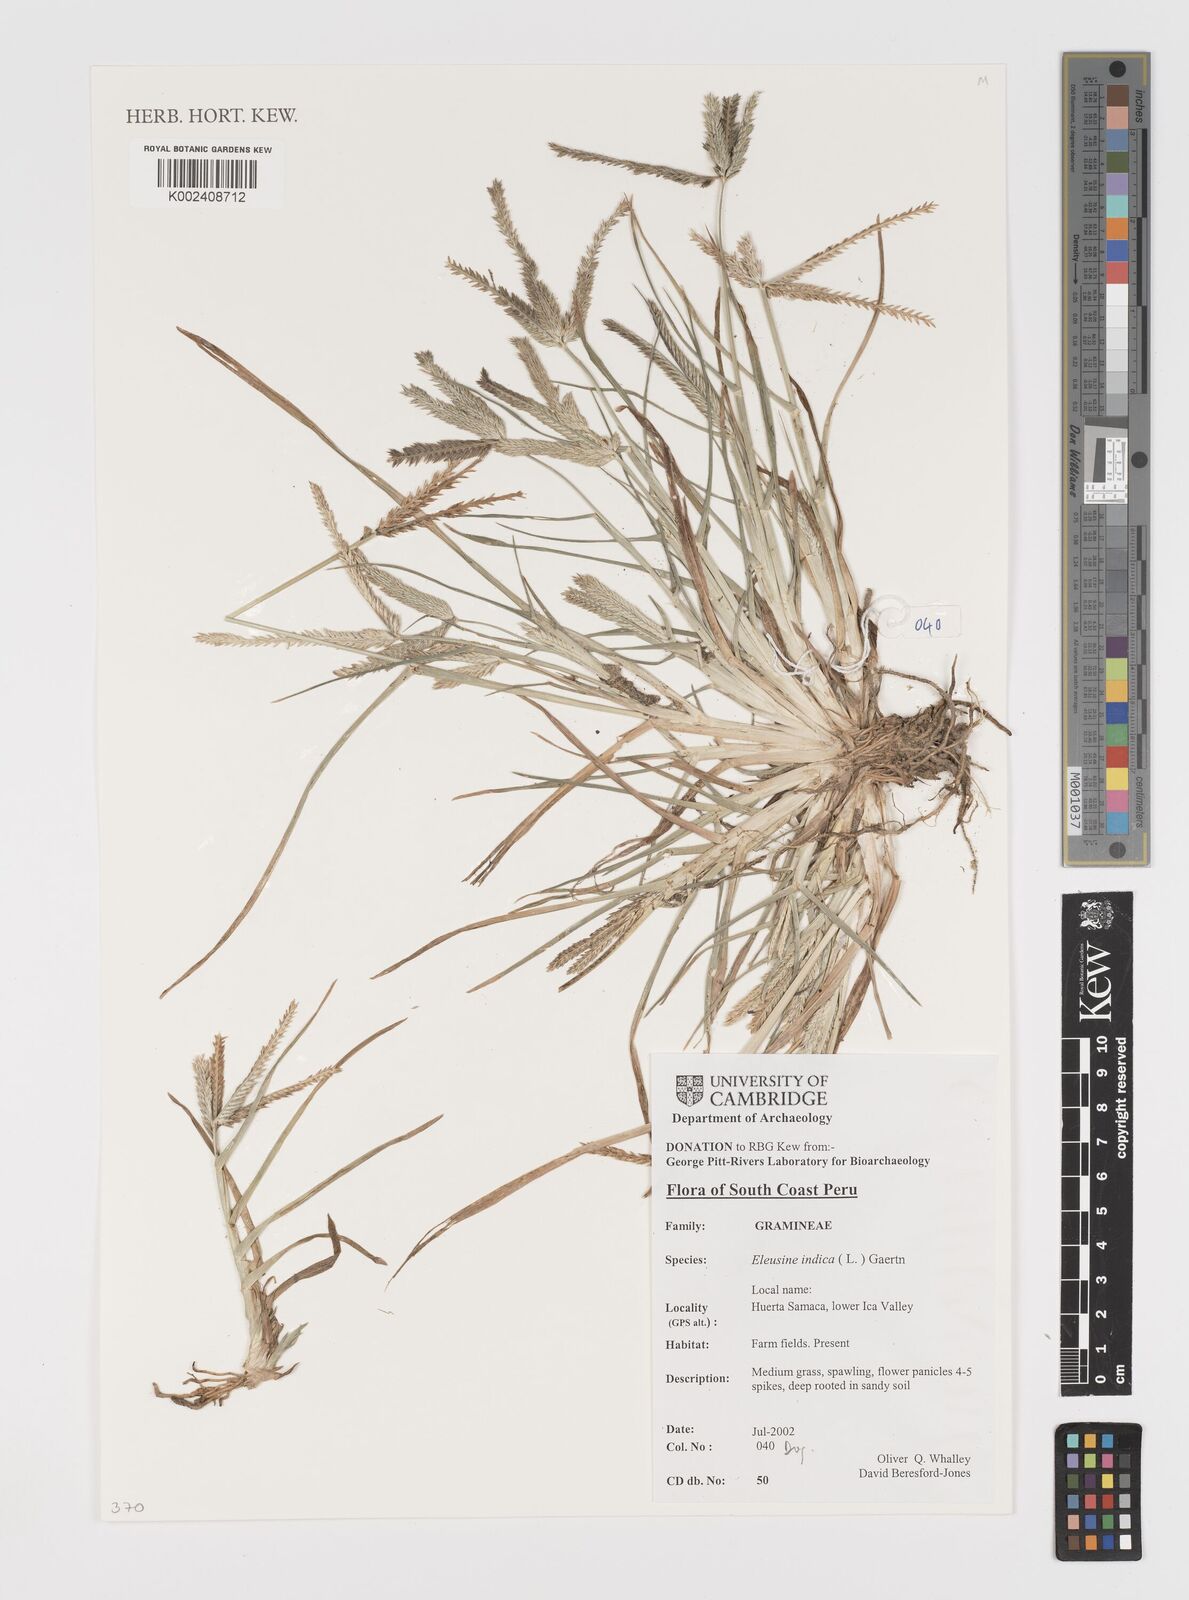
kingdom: Plantae
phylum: Tracheophyta
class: Liliopsida
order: Poales
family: Poaceae
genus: Eleusine
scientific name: Eleusine indica
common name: Yard-grass
